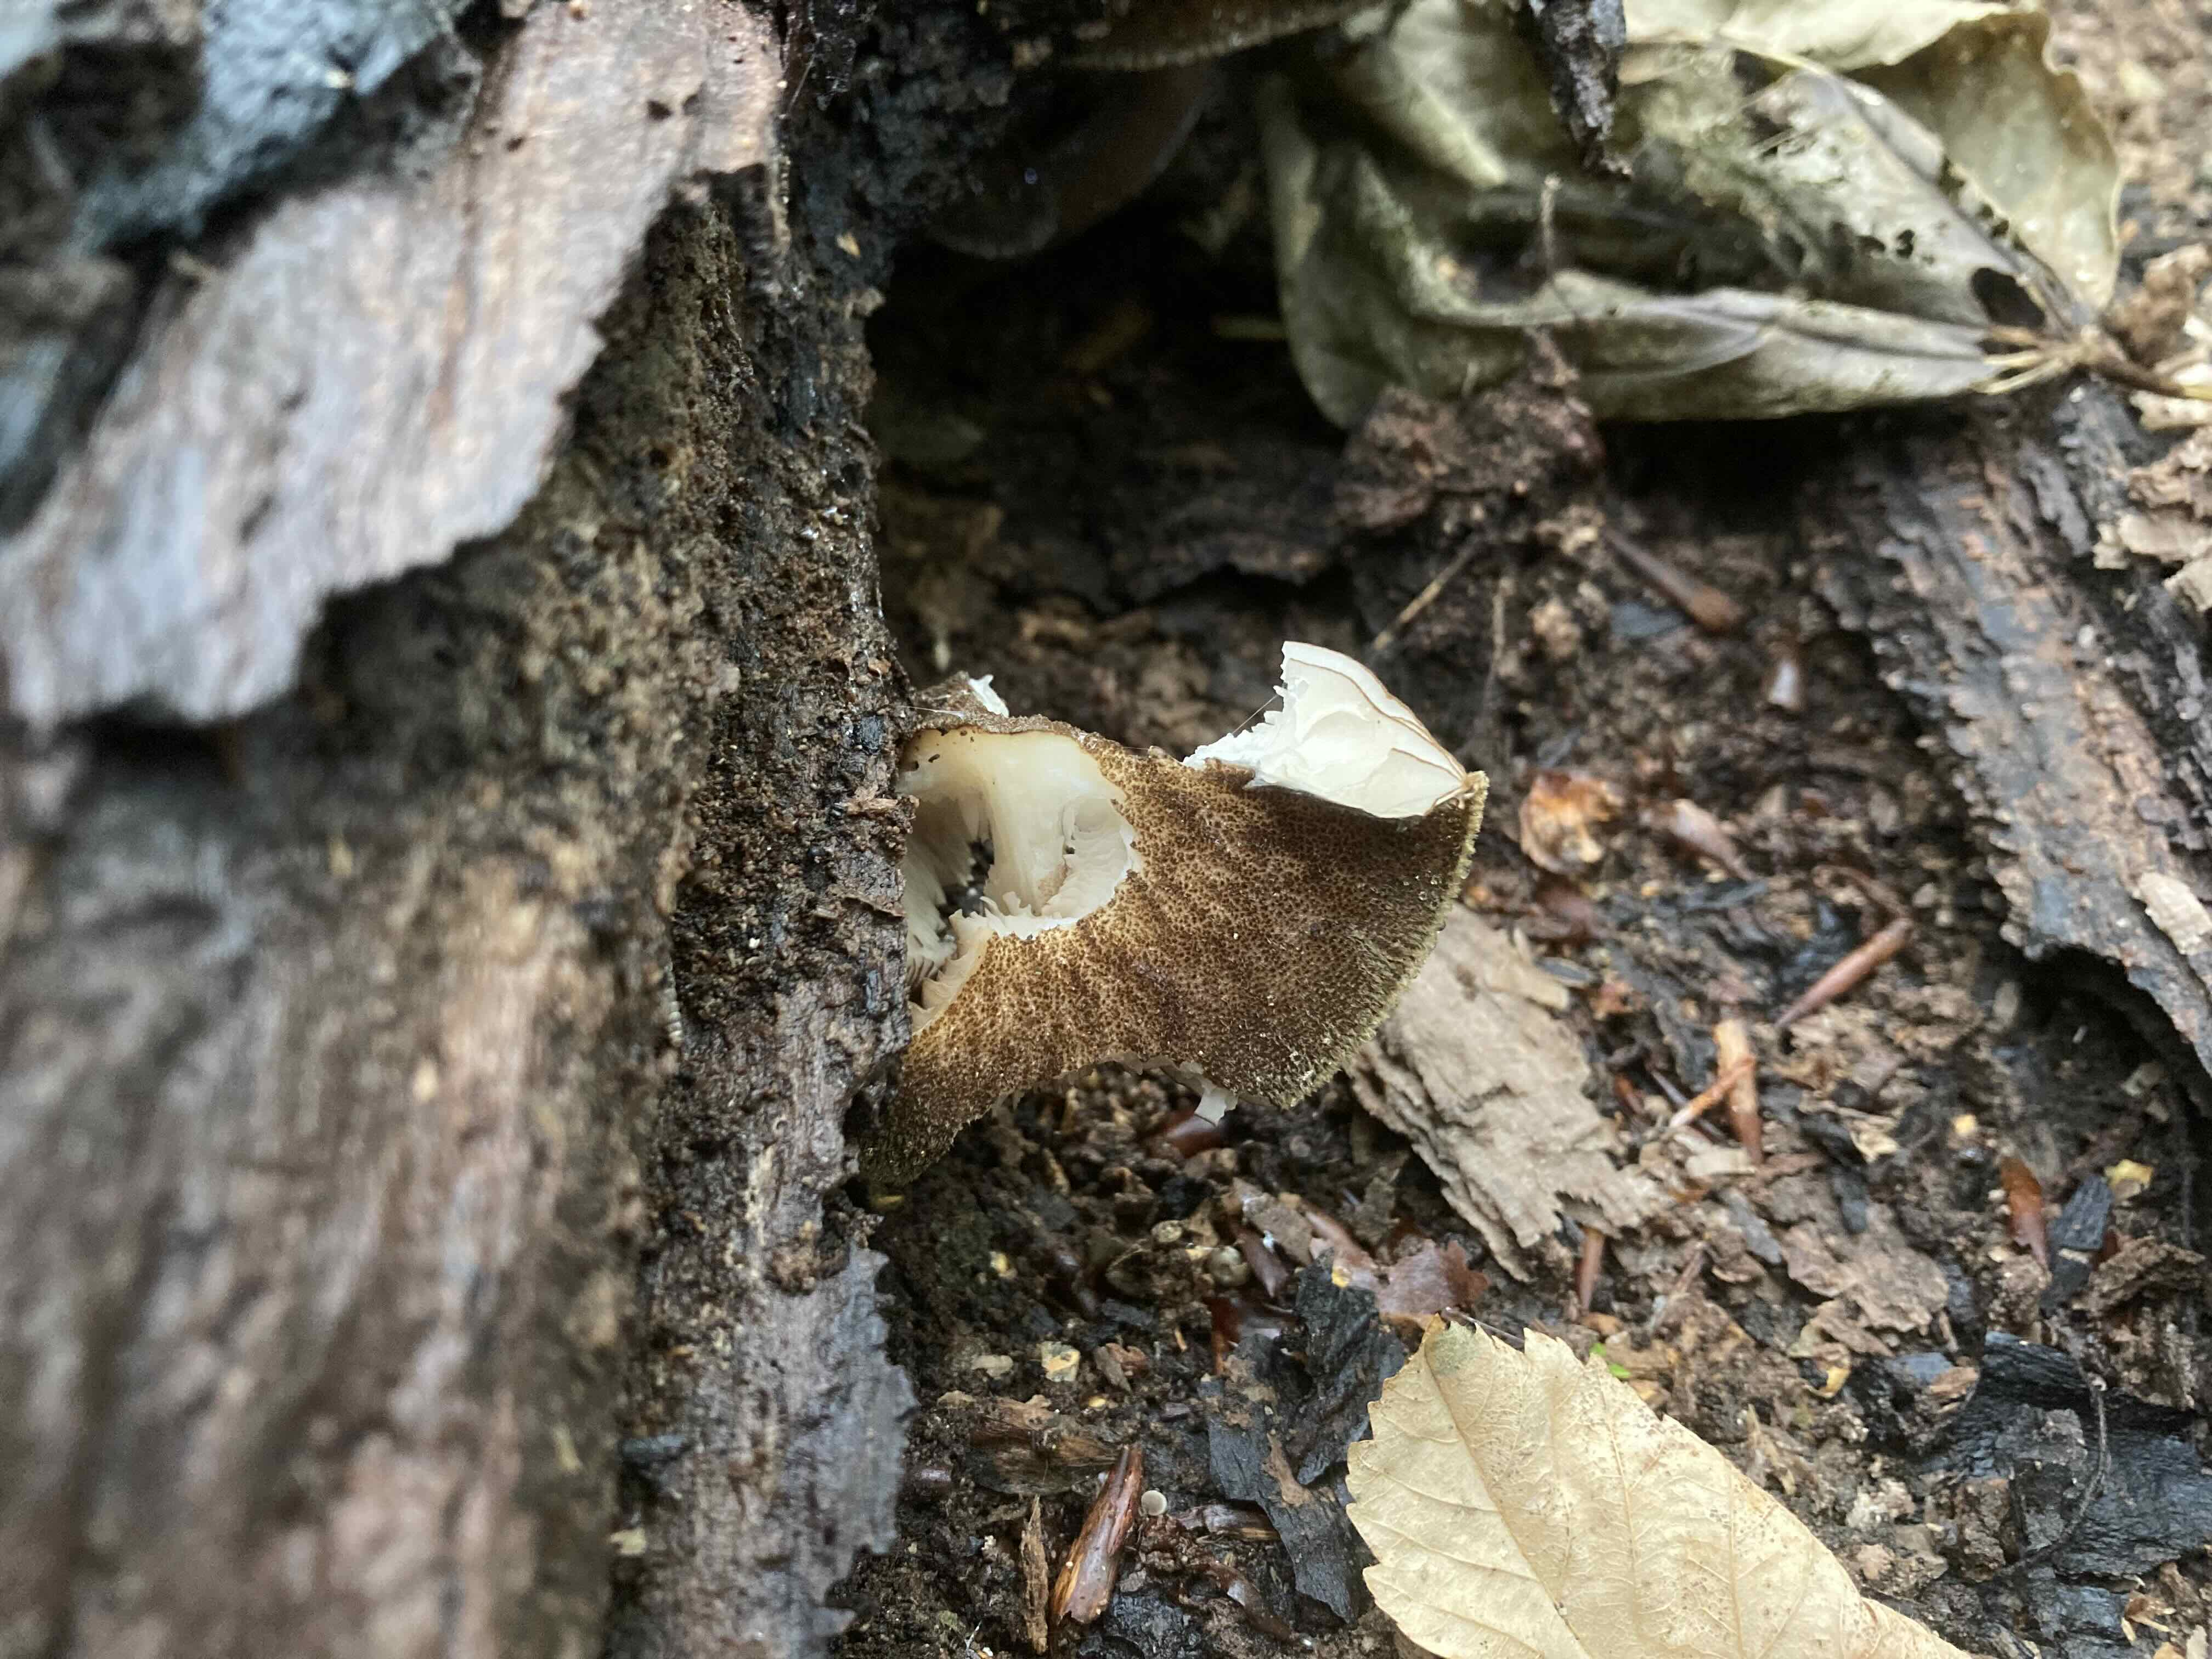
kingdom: Fungi
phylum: Basidiomycota
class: Agaricomycetes
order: Agaricales
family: Pluteaceae
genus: Pluteus
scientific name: Pluteus umbrosus
